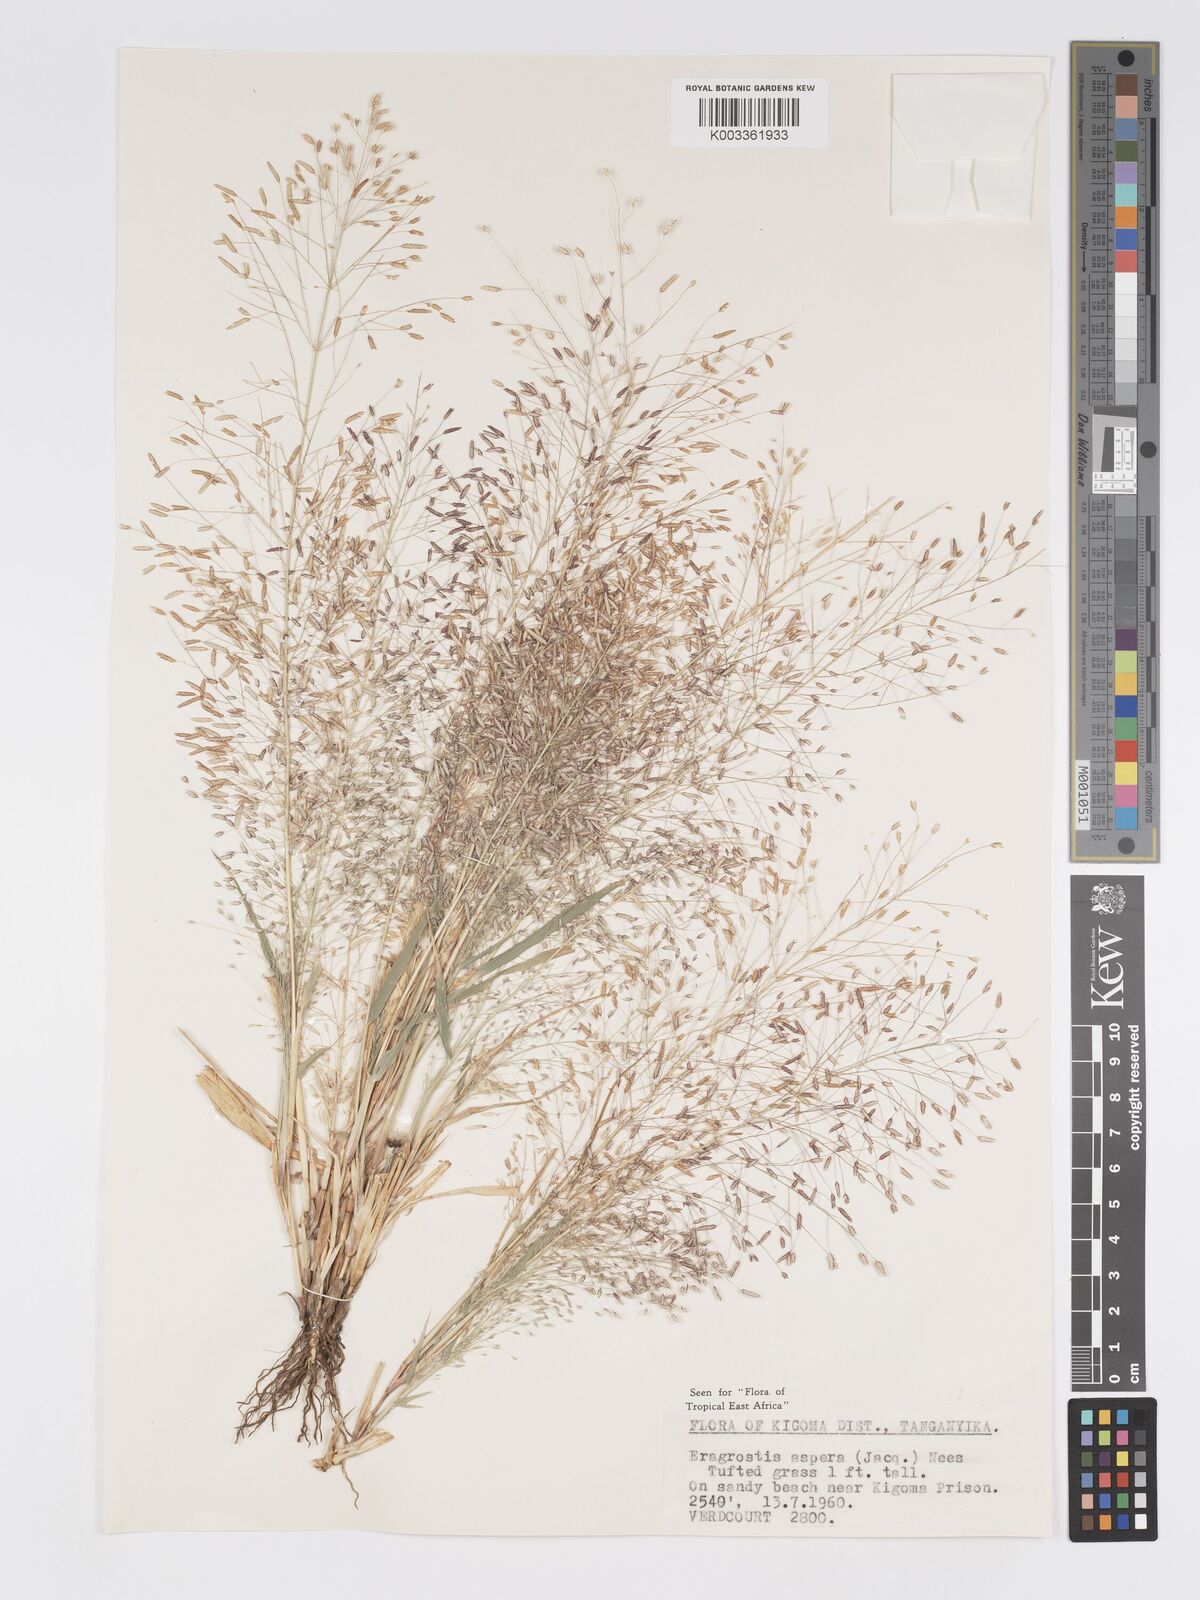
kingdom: Plantae
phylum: Tracheophyta
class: Liliopsida
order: Poales
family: Poaceae
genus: Eragrostis
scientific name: Eragrostis aspera
